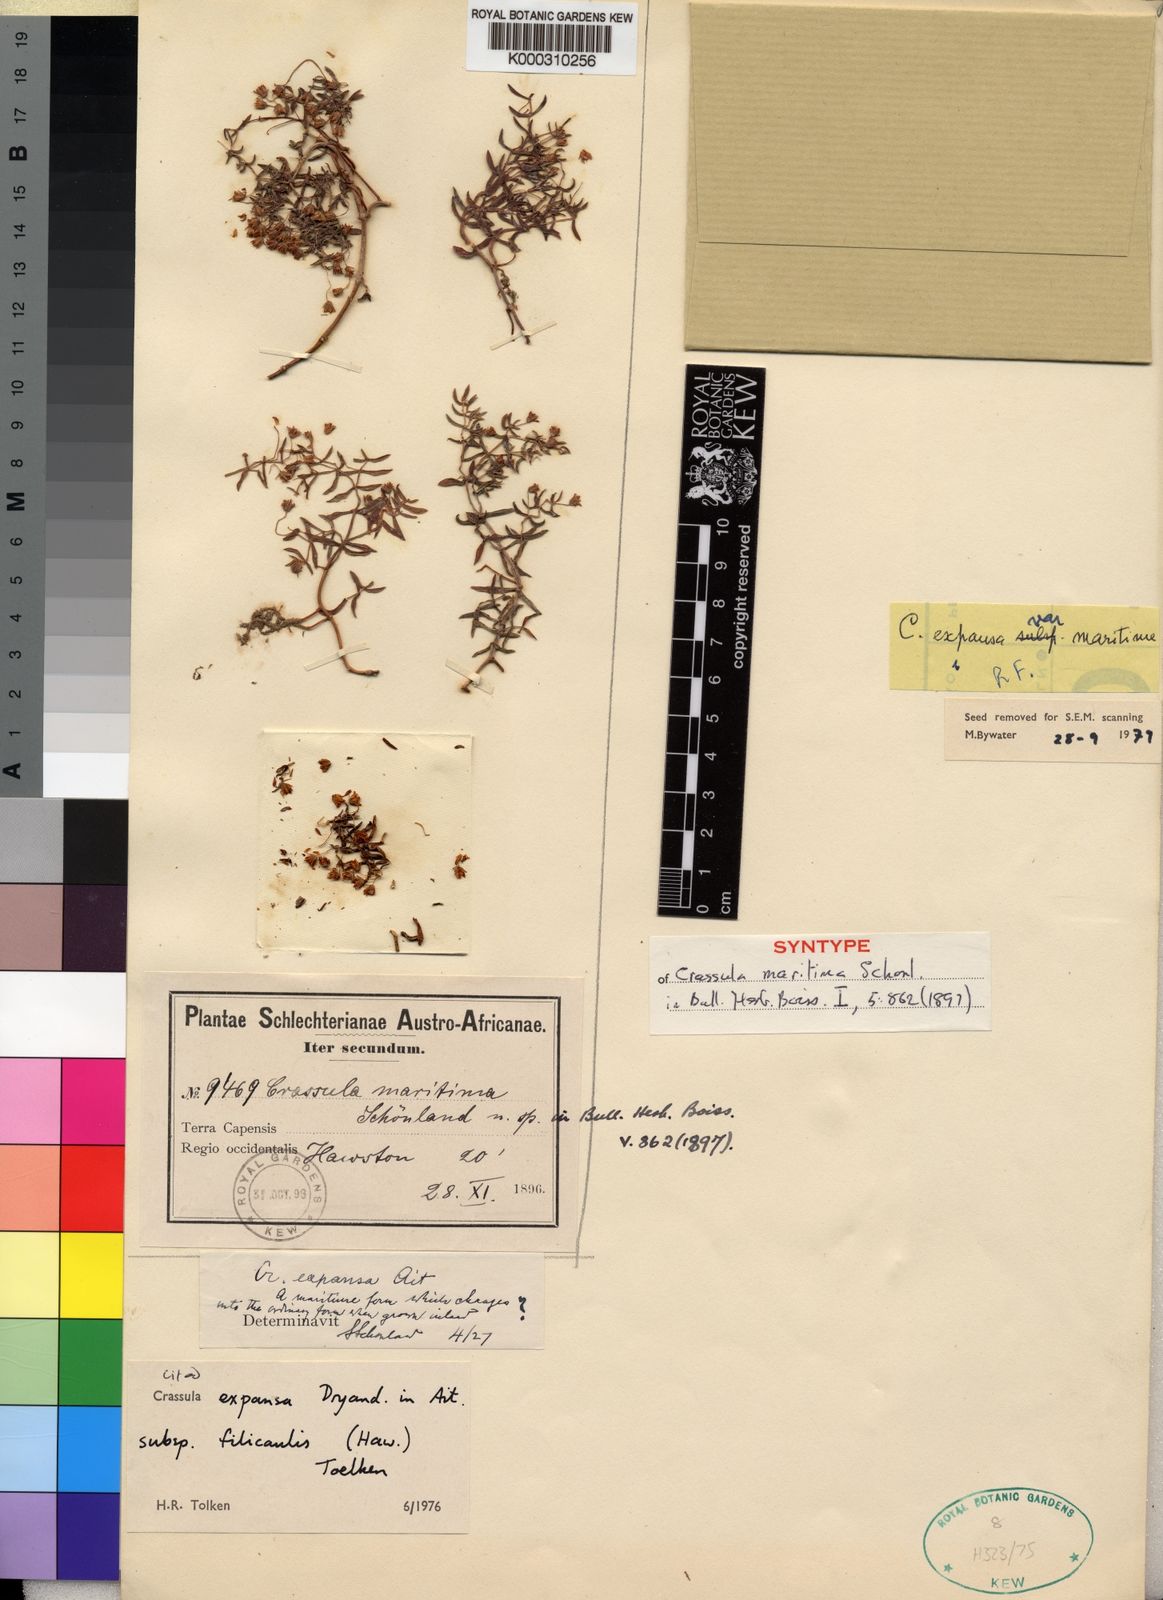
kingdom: Plantae
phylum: Tracheophyta
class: Magnoliopsida
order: Saxifragales
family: Crassulaceae
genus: Crassula
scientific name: Crassula expansa
